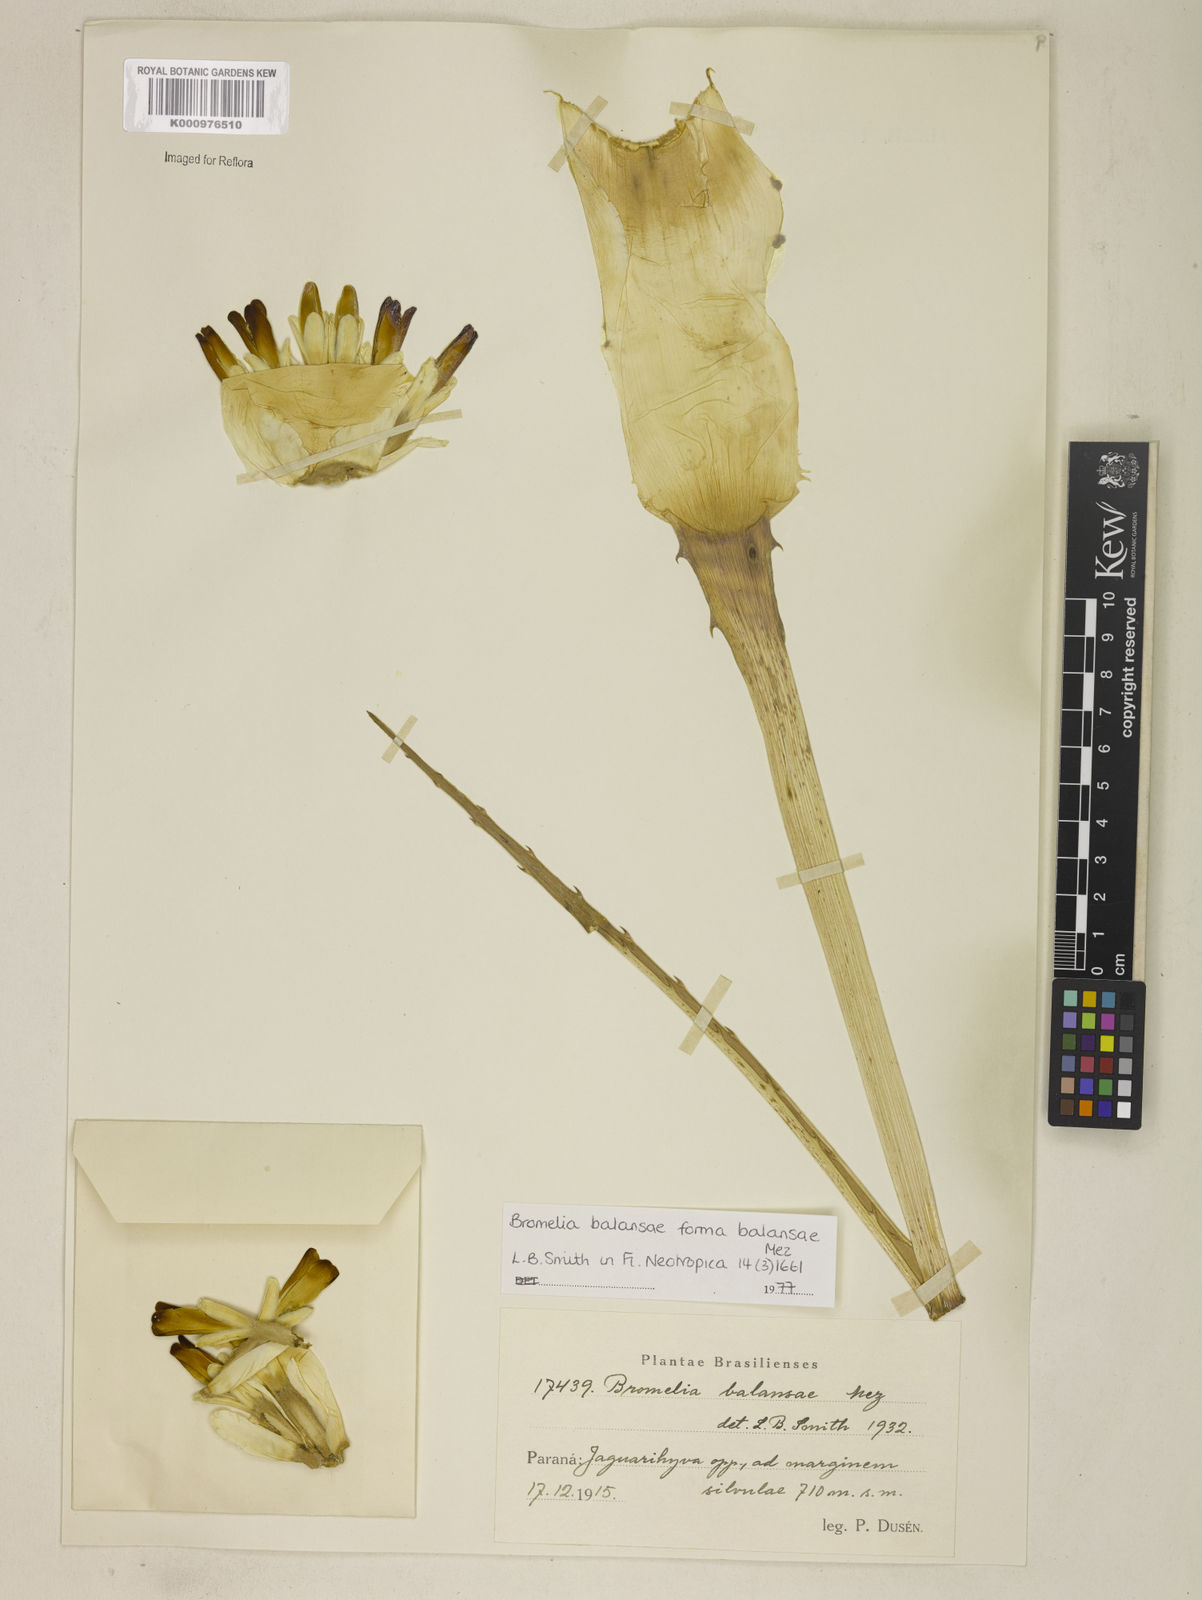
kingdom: Plantae
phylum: Tracheophyta
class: Liliopsida
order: Poales
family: Bromeliaceae
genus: Bromelia
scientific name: Bromelia balansae
